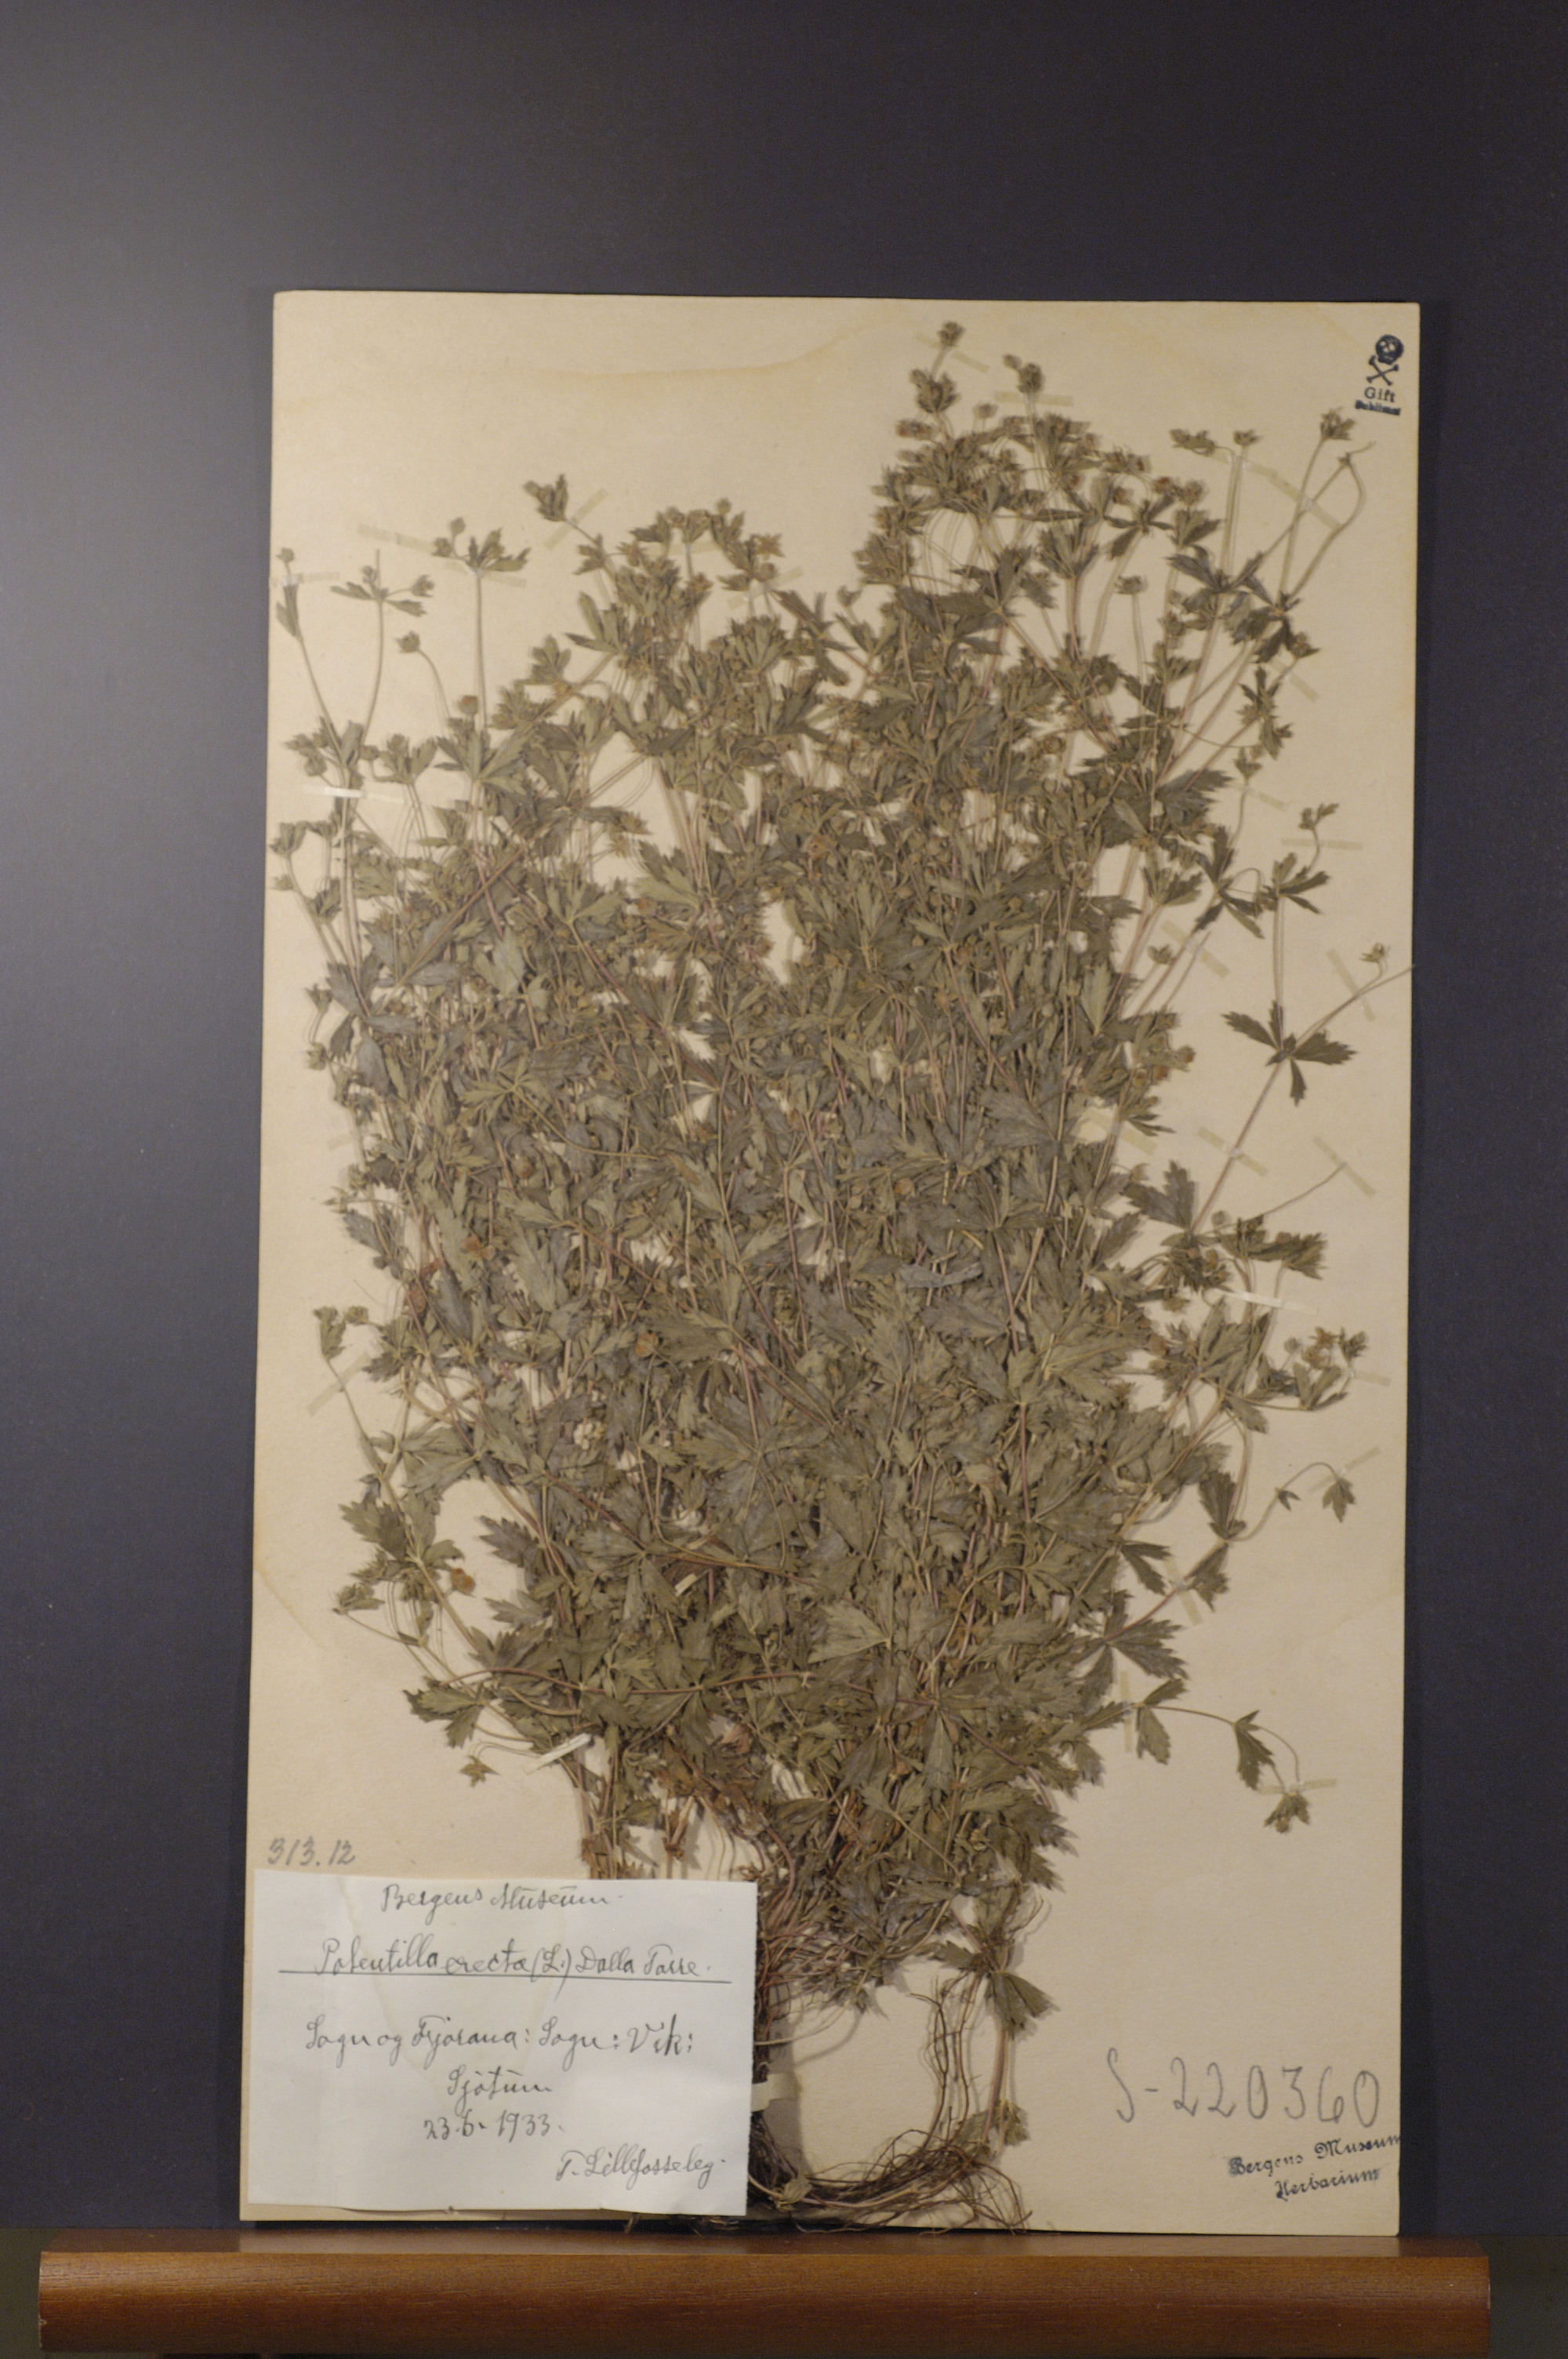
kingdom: Plantae
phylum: Tracheophyta
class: Magnoliopsida
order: Rosales
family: Rosaceae
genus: Potentilla
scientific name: Potentilla erecta
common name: Tormentil
